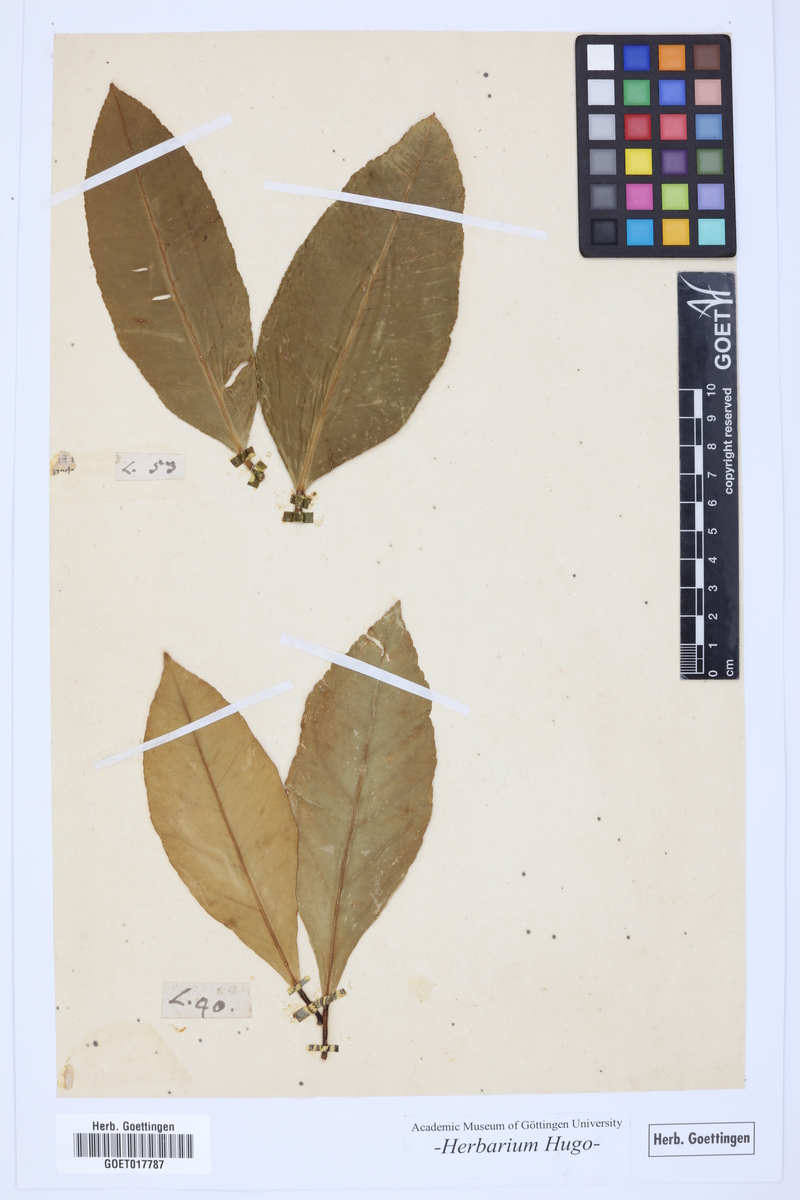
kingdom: Plantae
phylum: Tracheophyta
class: Magnoliopsida
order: Sapindales
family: Rutaceae
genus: Citrus
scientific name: Citrus
